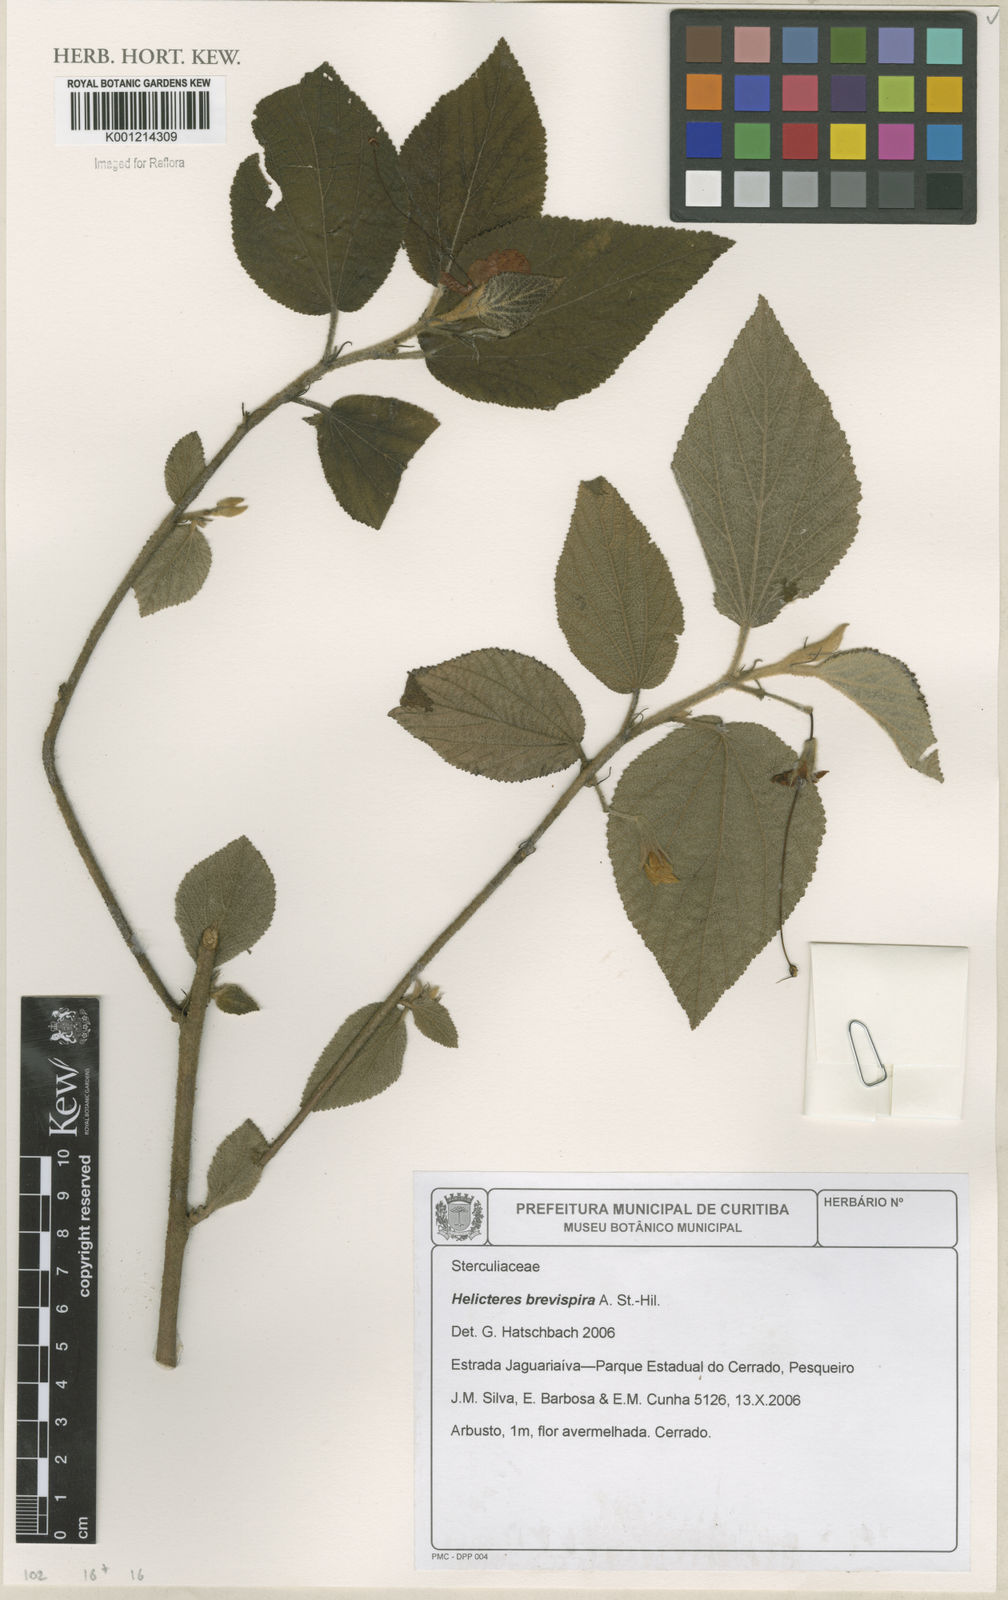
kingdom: Plantae
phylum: Tracheophyta
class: Magnoliopsida
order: Malvales
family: Malvaceae
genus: Helicteres
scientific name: Helicteres
